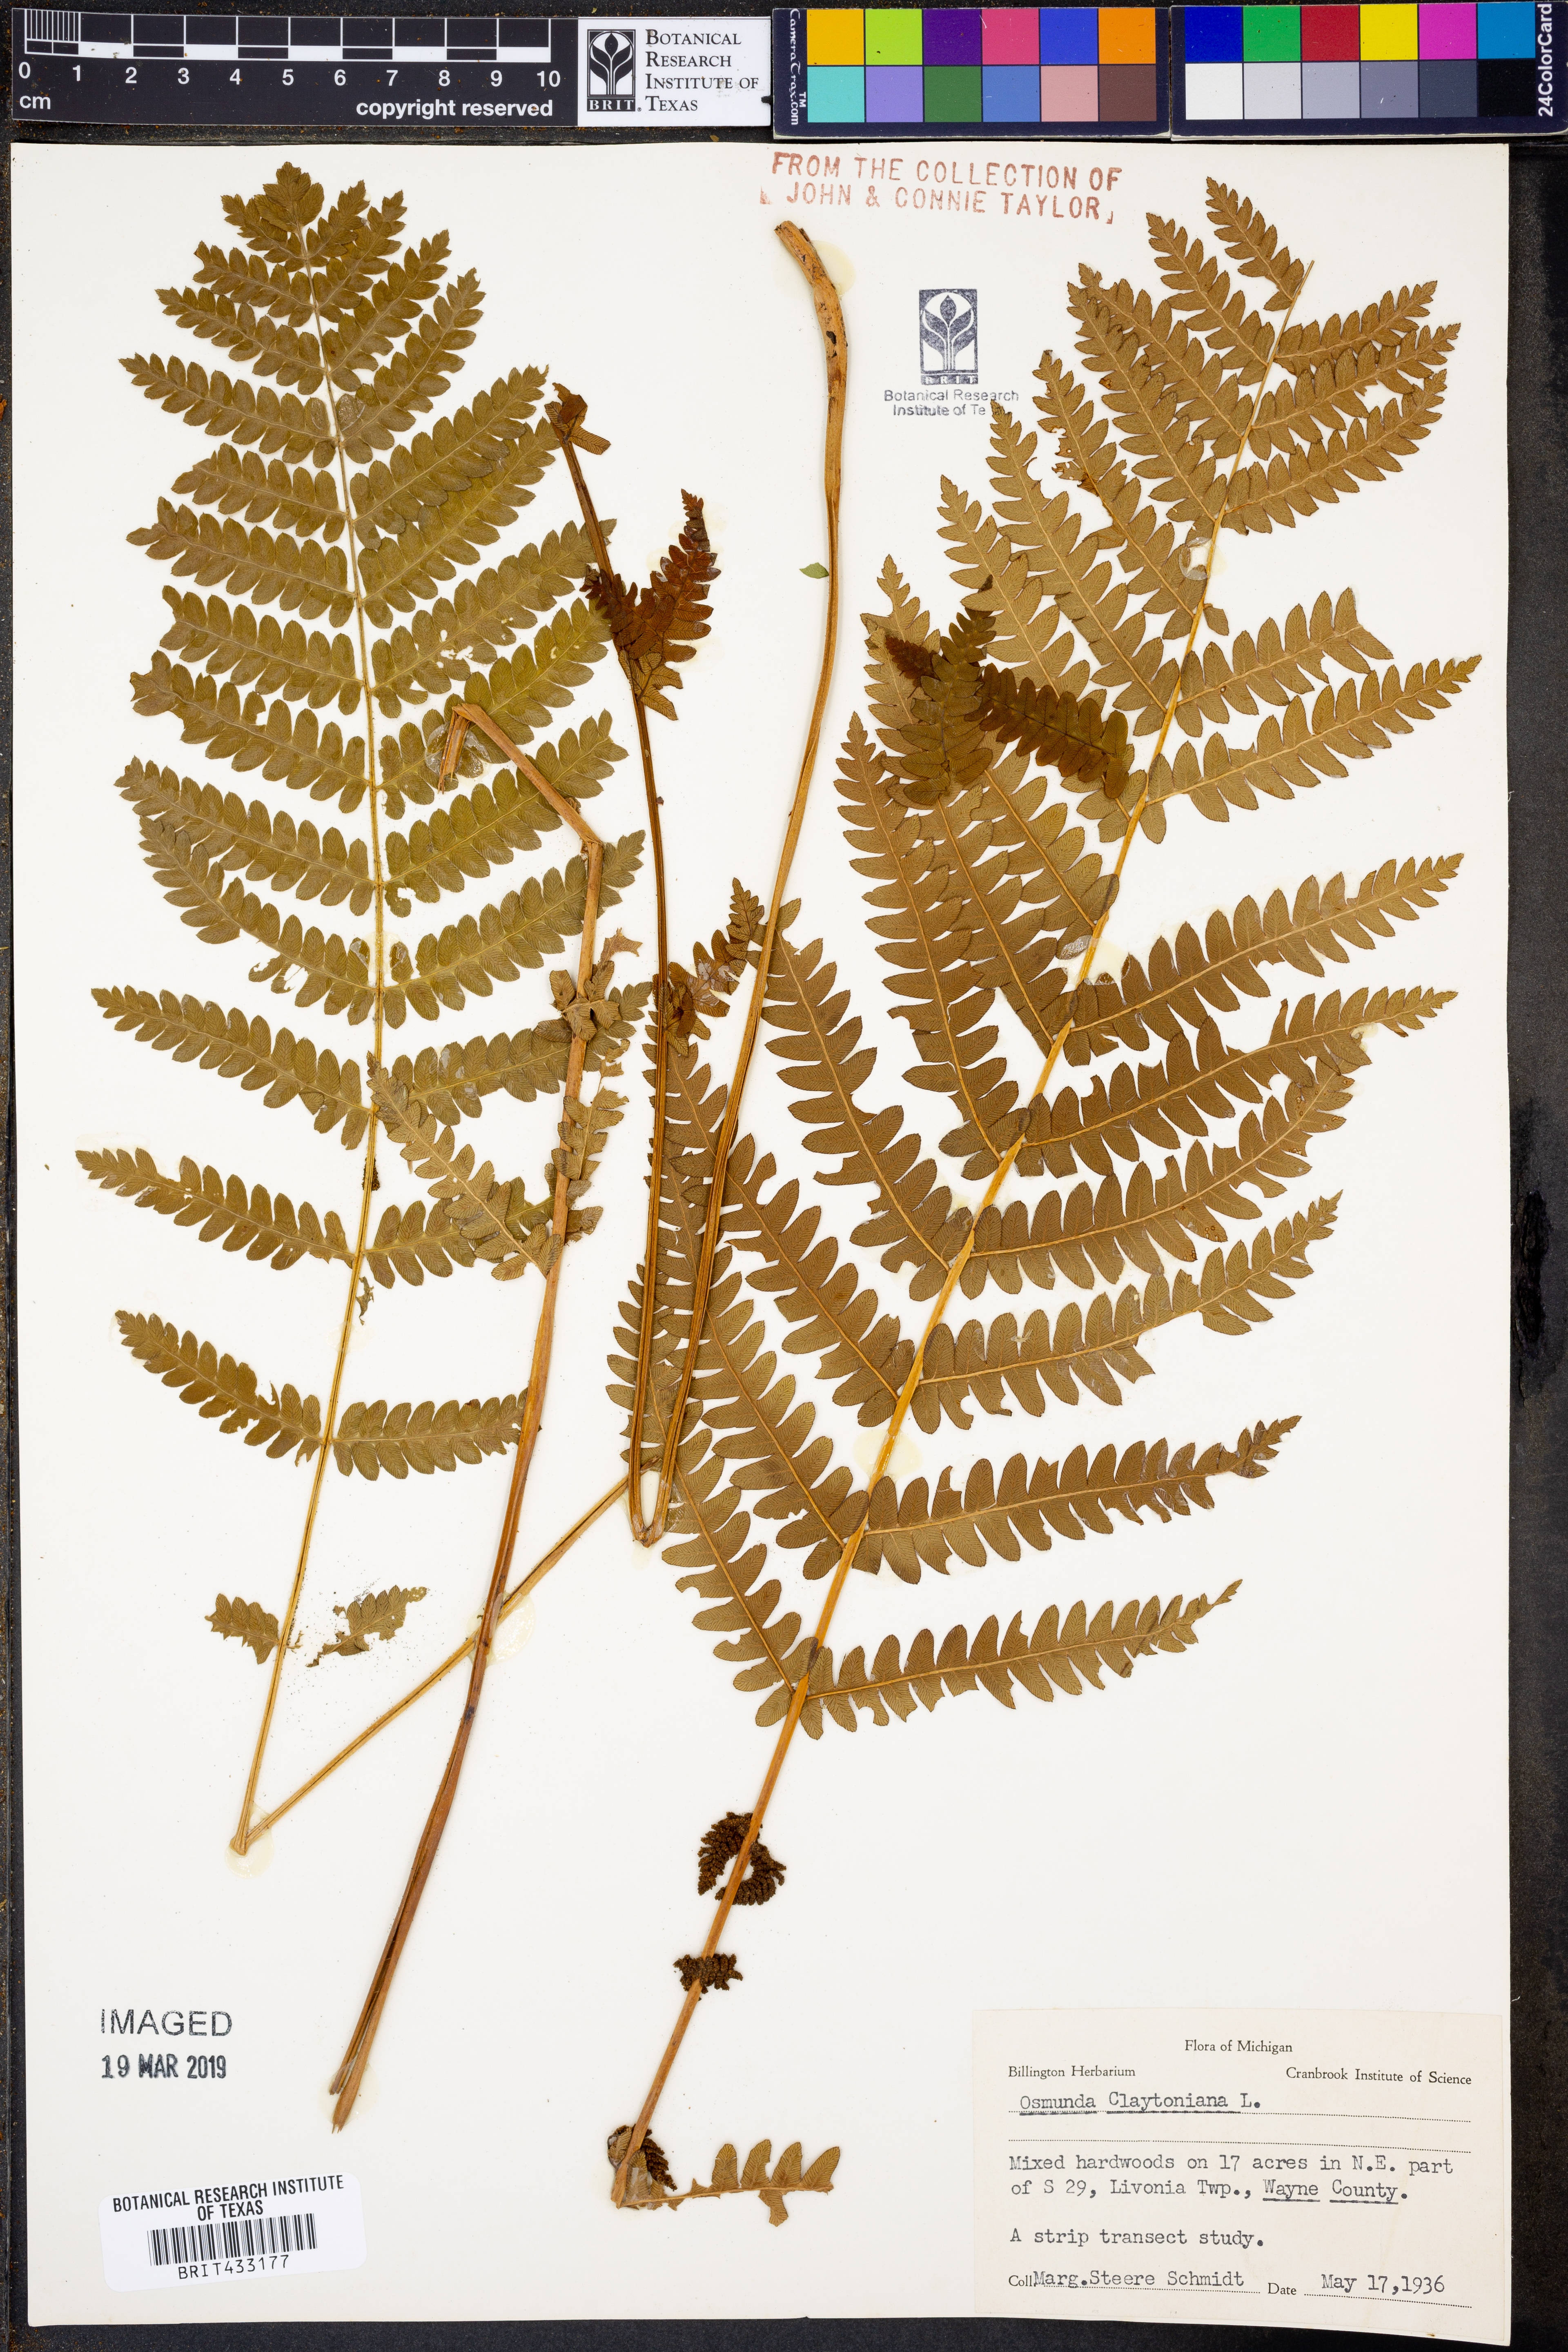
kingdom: Plantae
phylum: Tracheophyta
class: Polypodiopsida
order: Osmundales
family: Osmundaceae
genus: Claytosmunda
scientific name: Claytosmunda claytoniana
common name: Clayton's fern
